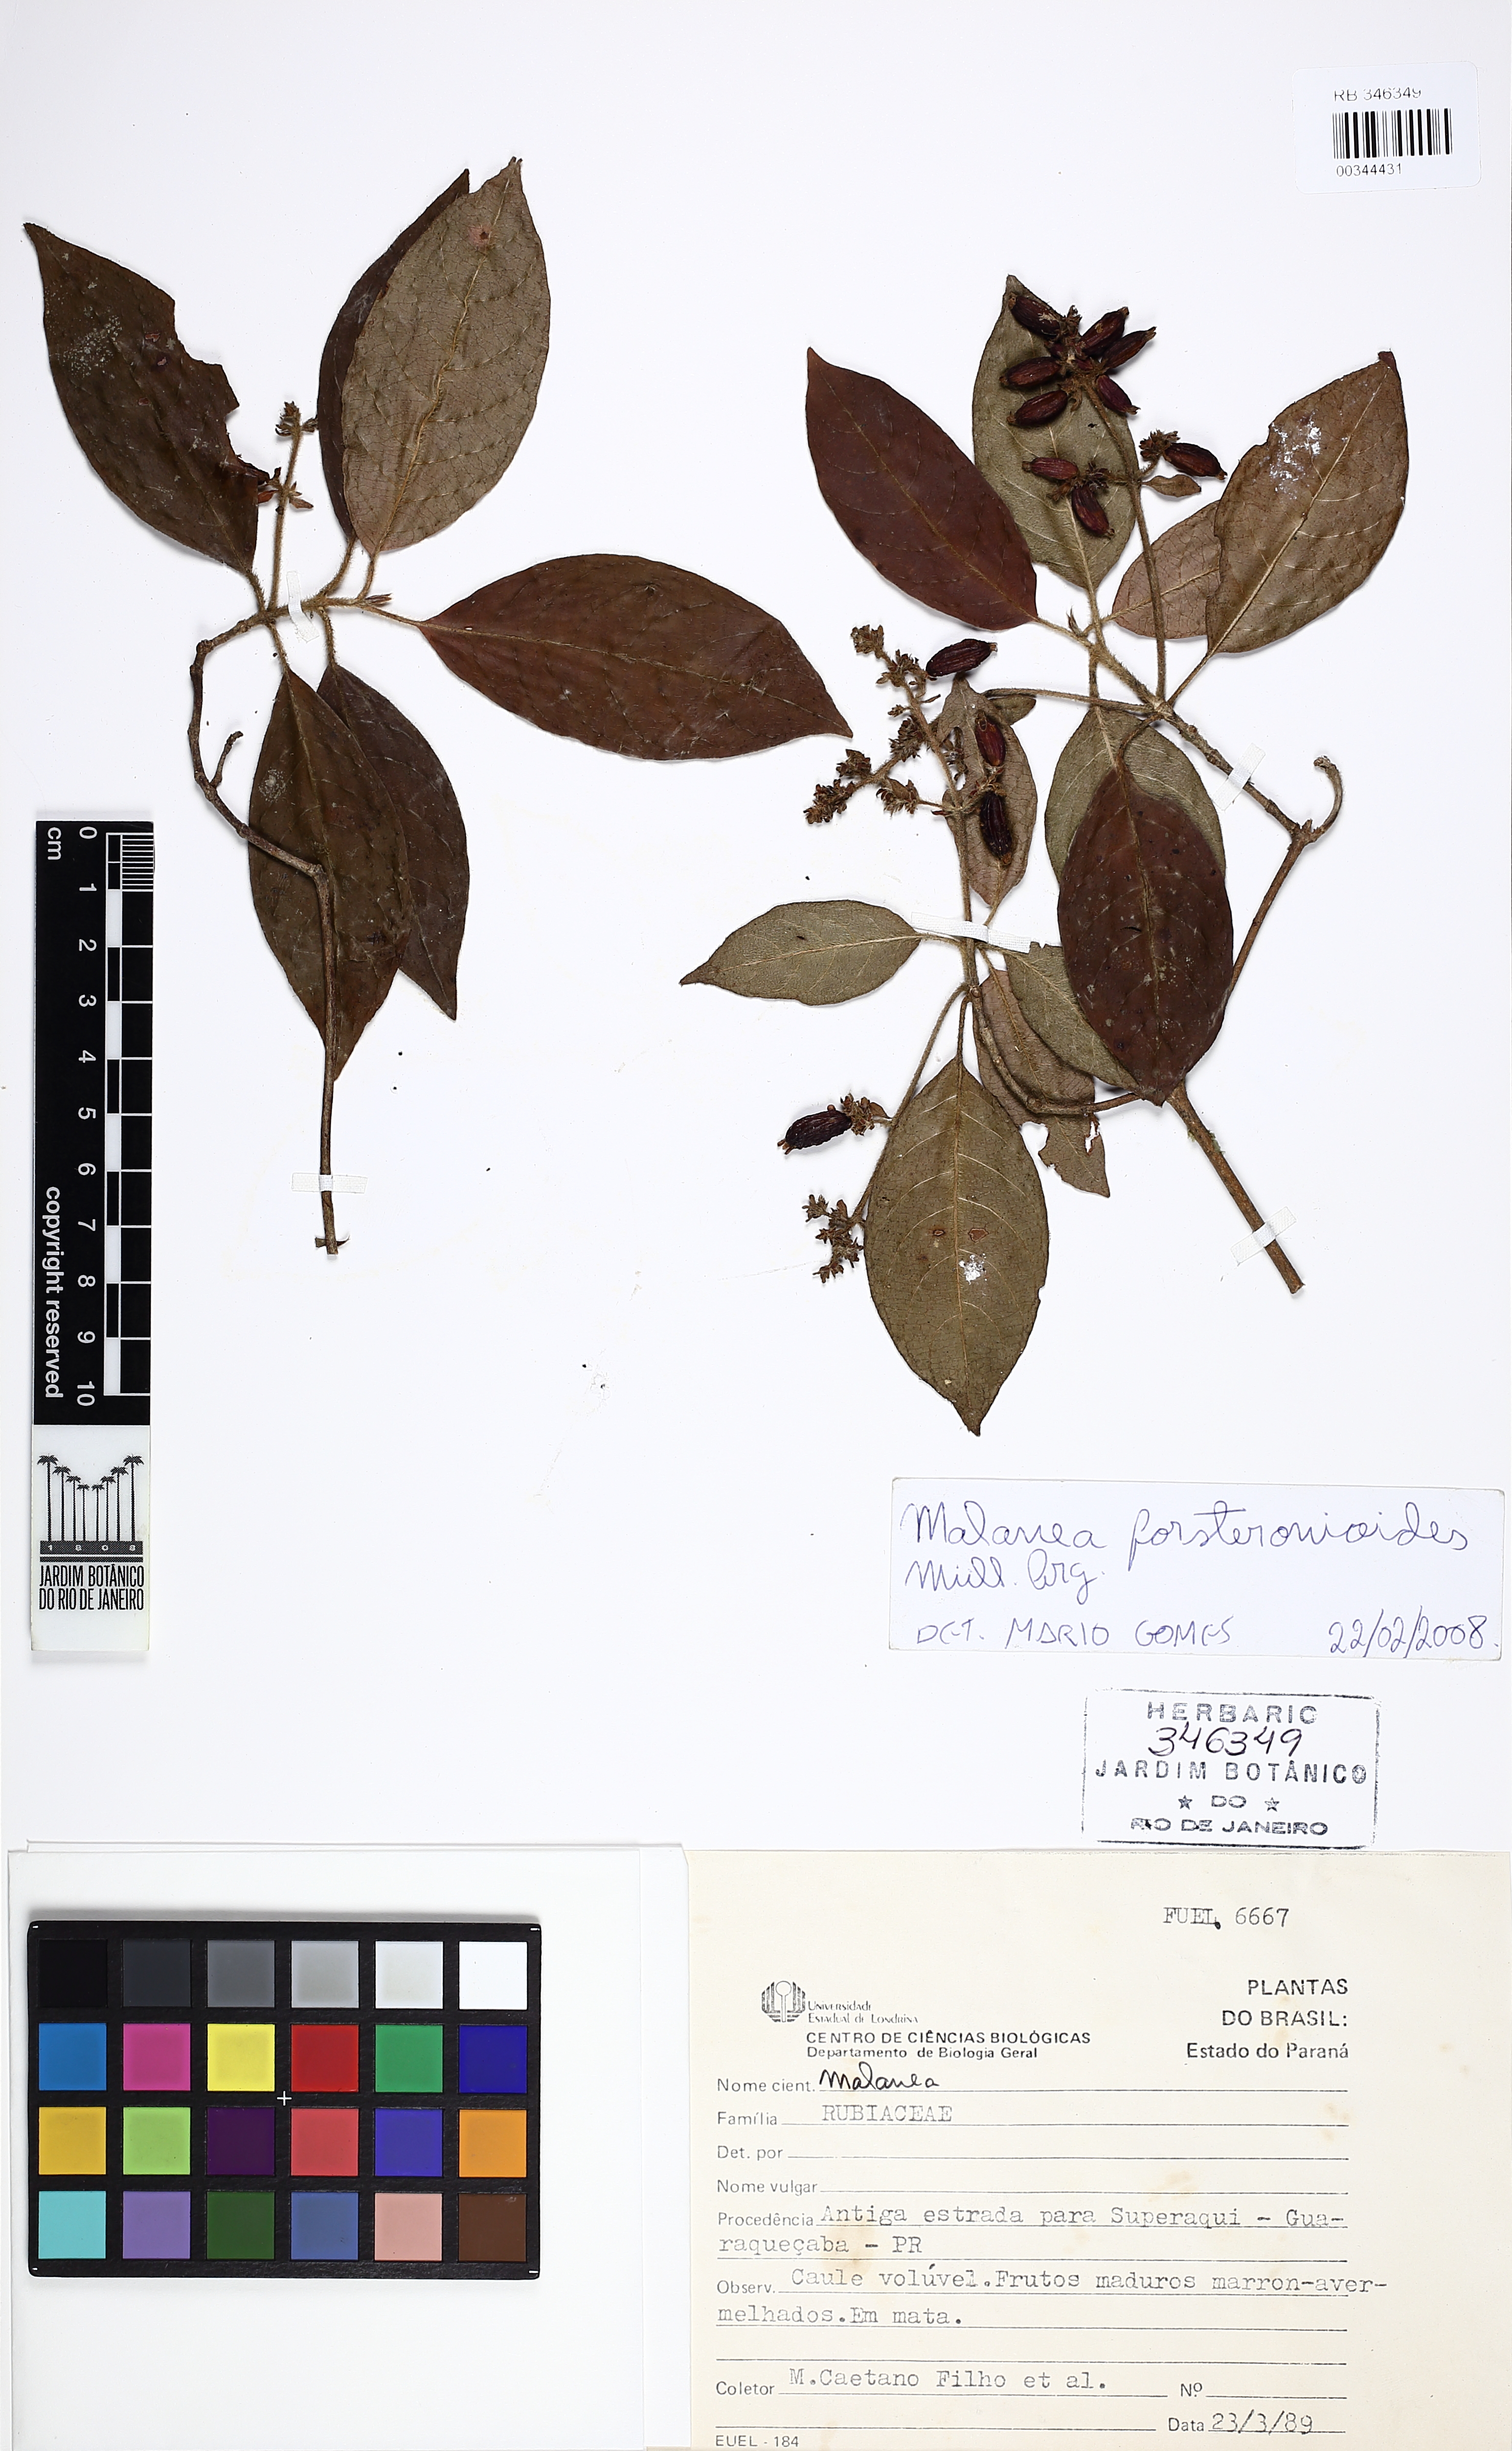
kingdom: Plantae
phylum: Tracheophyta
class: Magnoliopsida
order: Gentianales
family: Rubiaceae
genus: Malanea
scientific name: Malanea forsteronioides
